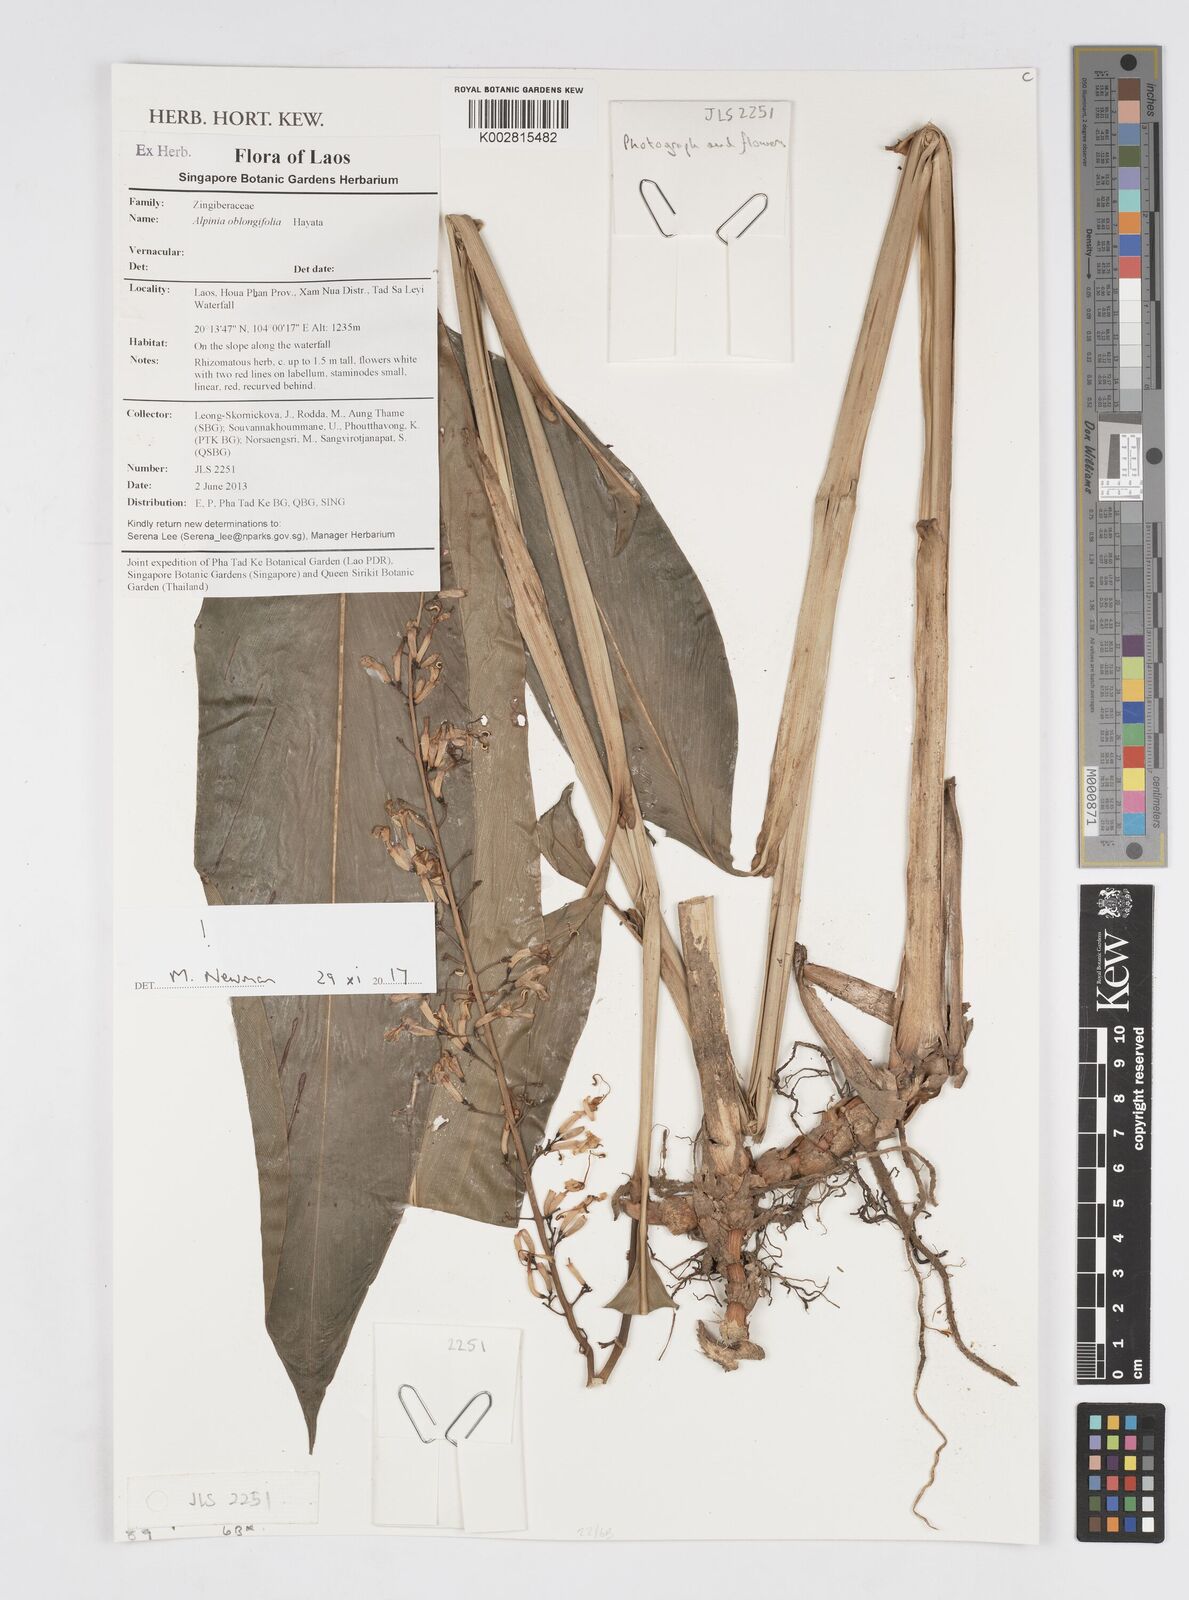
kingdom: Plantae
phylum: Tracheophyta
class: Liliopsida
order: Zingiberales
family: Zingiberaceae
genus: Alpinia
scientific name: Alpinia oblongifolia
